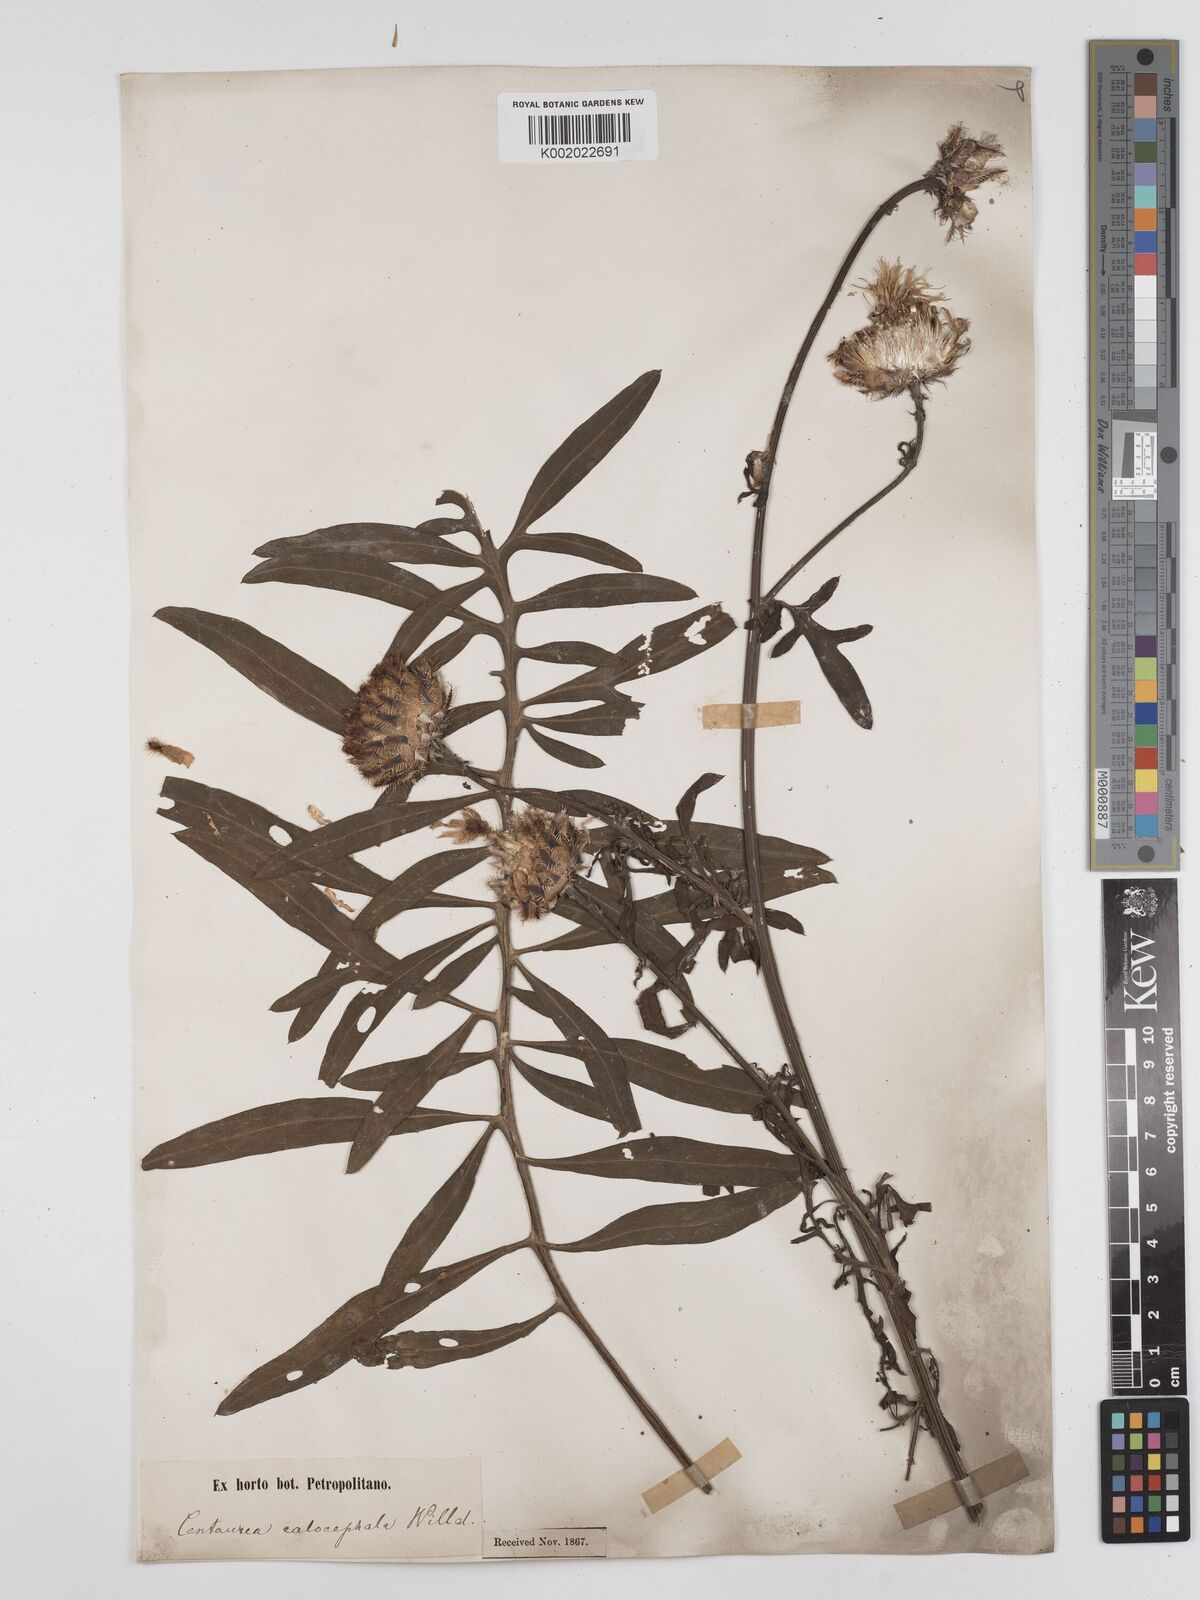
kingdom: Plantae
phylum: Tracheophyta
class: Magnoliopsida
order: Asterales
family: Asteraceae
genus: Centaurea
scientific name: Centaurea calocephala
